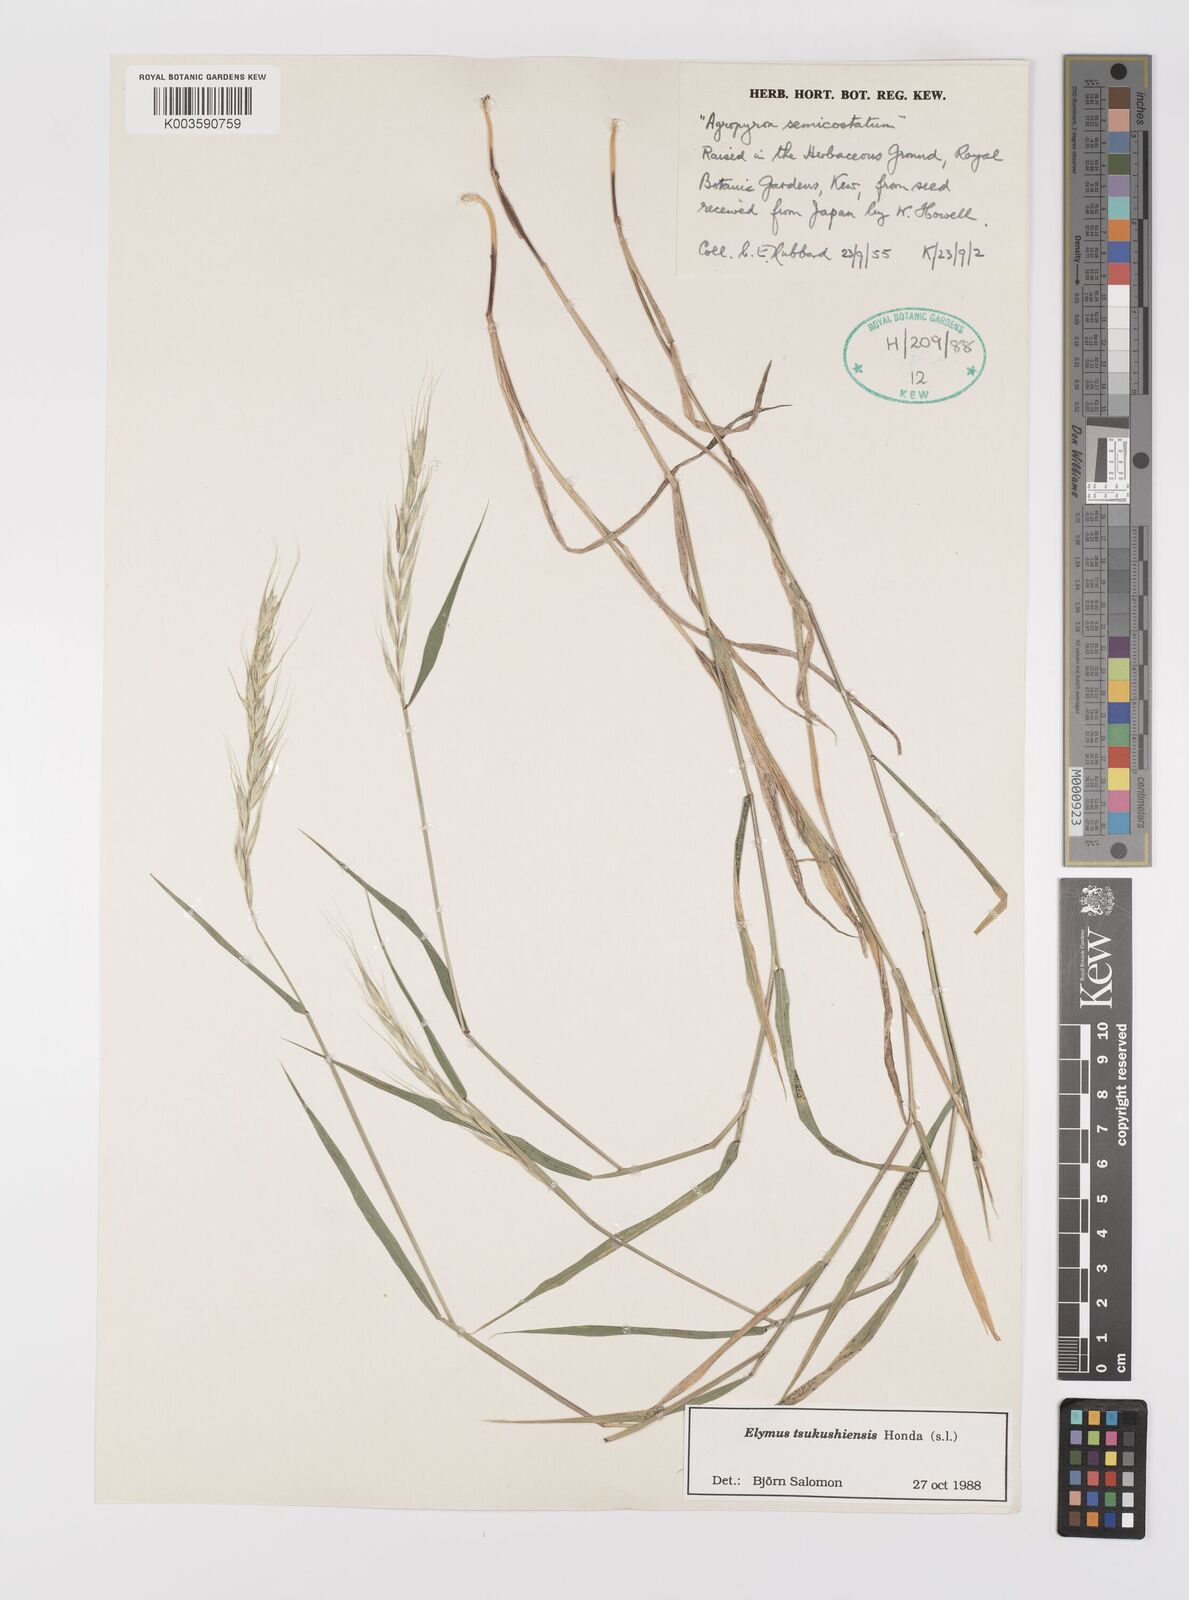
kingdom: Plantae
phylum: Tracheophyta
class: Liliopsida
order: Poales
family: Poaceae
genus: Elymus
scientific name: Elymus tsukushiensis
